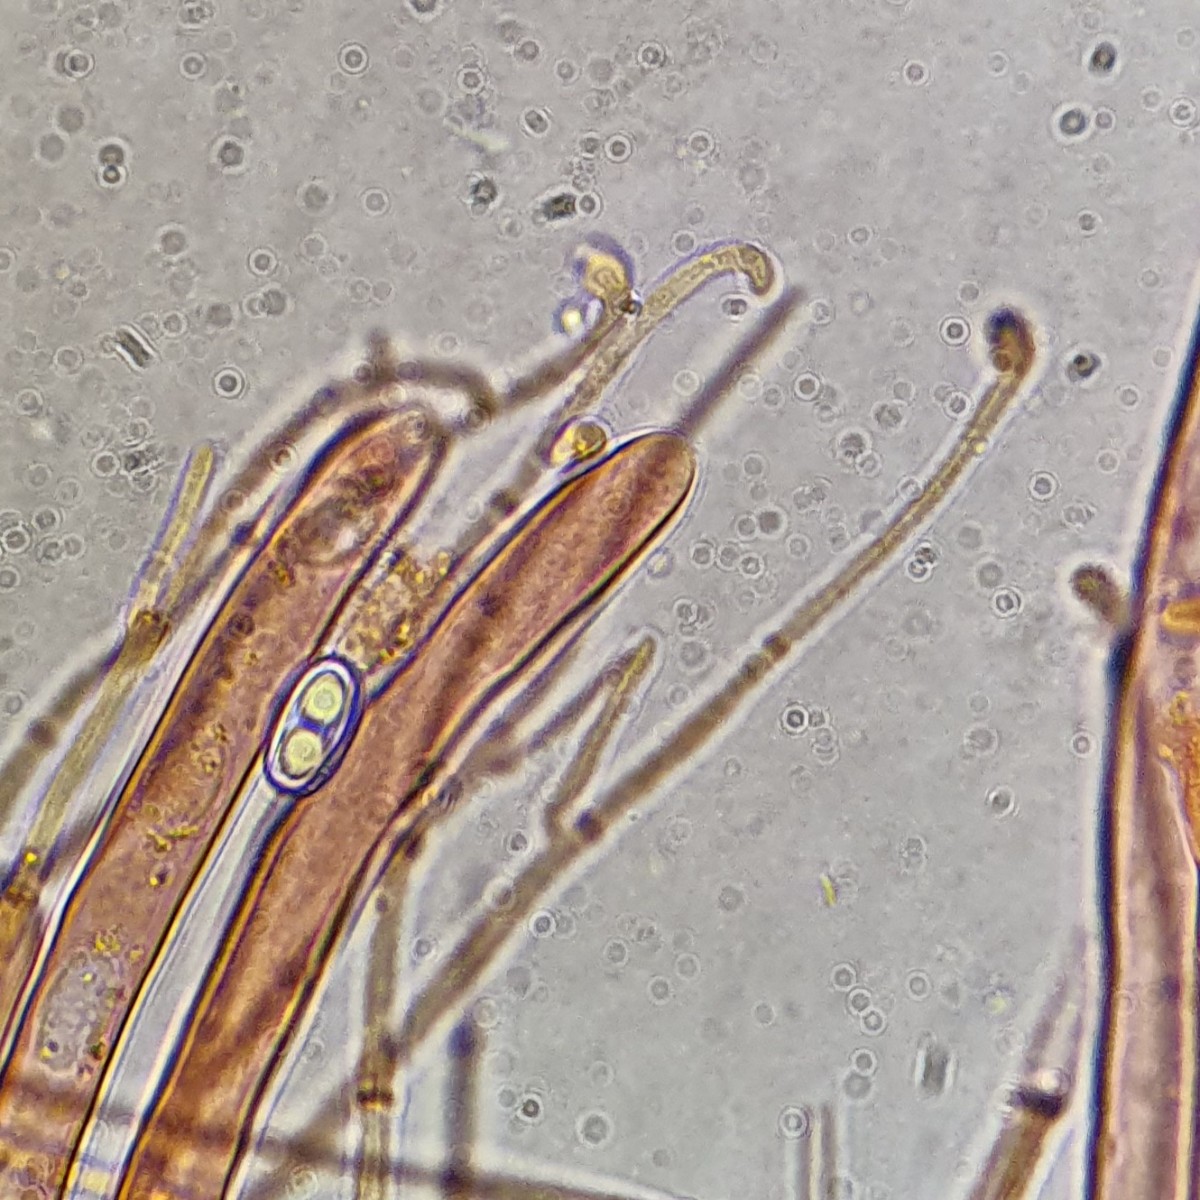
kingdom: Fungi
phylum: Ascomycota
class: Pezizomycetes
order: Pezizales
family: Otideaceae
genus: Otidea
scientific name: Otidea onotica
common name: æsel-ørebæger
